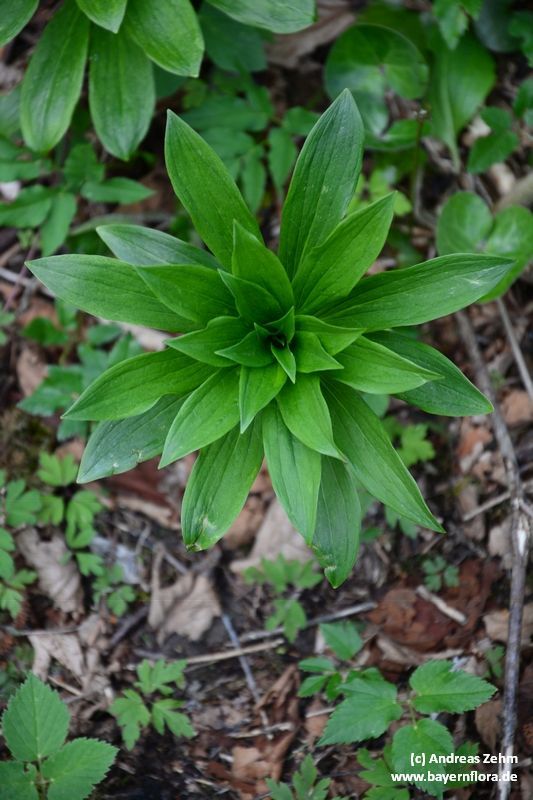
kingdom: Plantae
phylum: Tracheophyta
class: Liliopsida
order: Liliales
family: Liliaceae
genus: Lilium
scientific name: Lilium martagon
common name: Martagon lily
